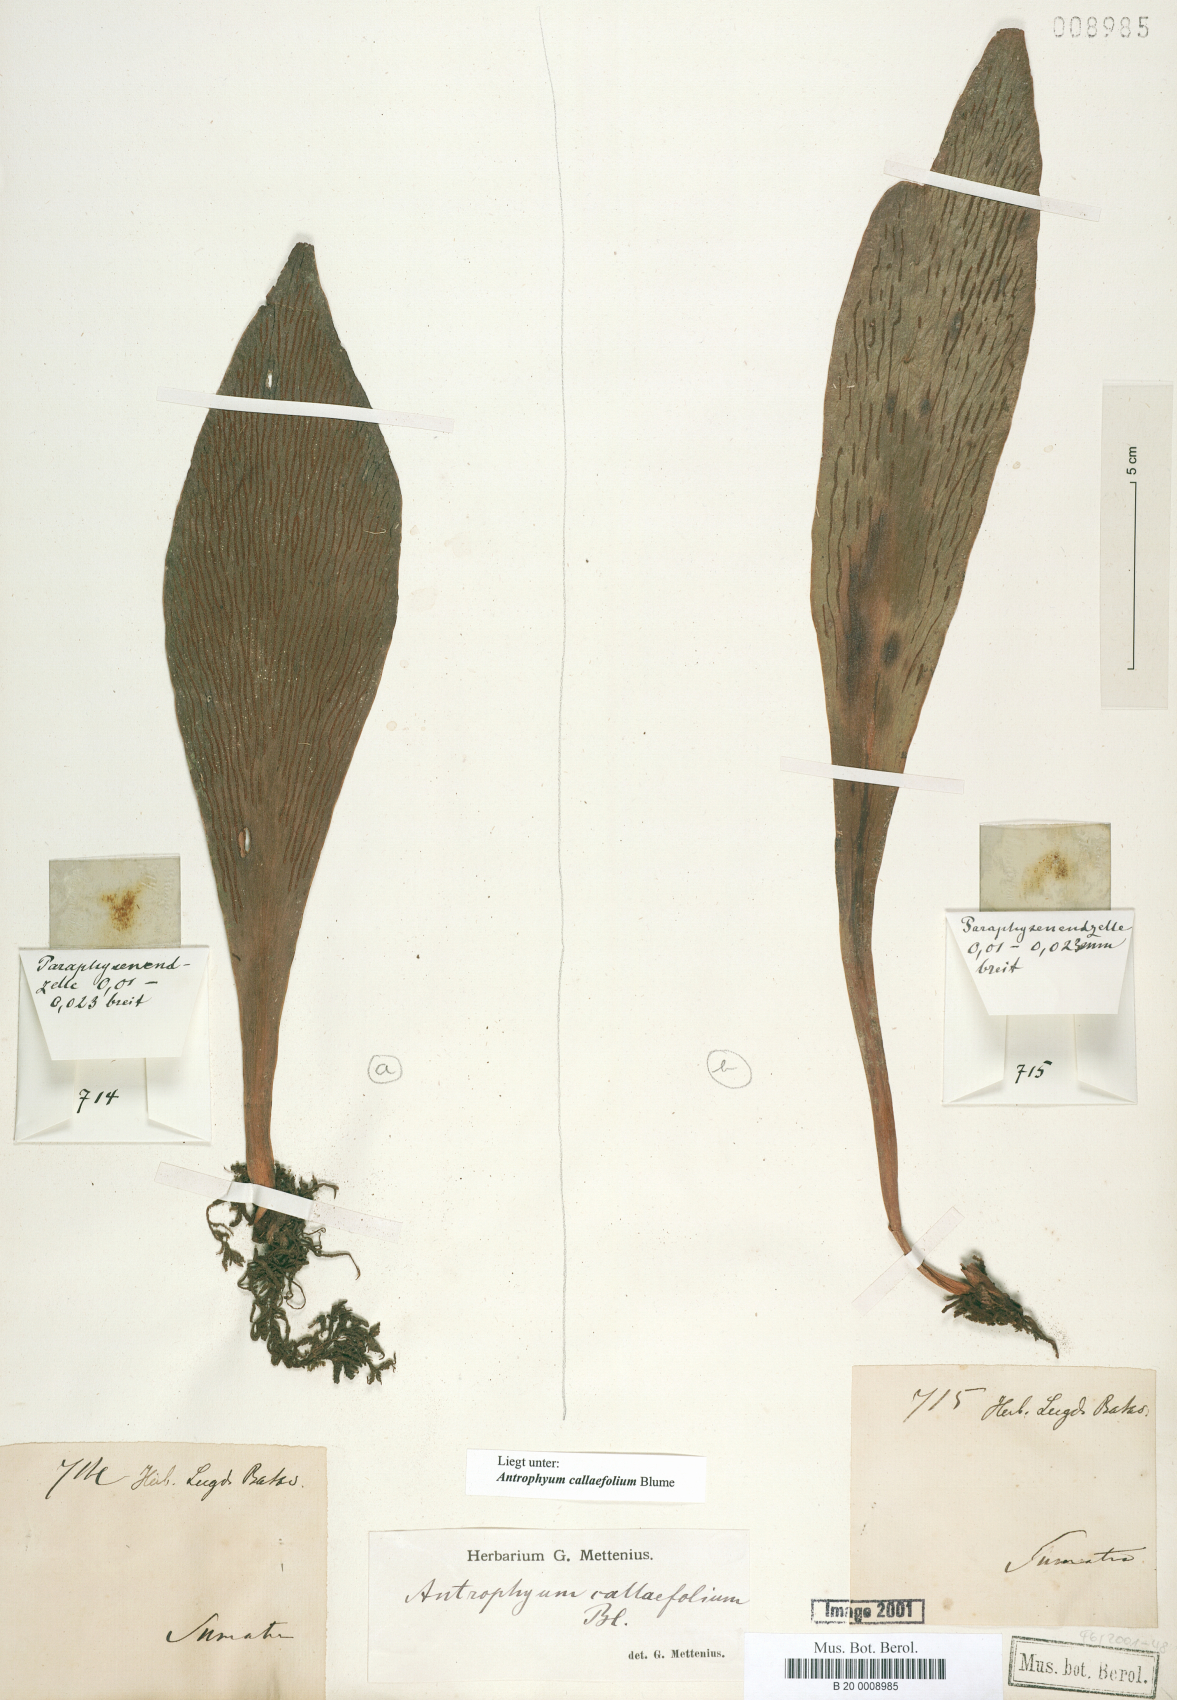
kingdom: Plantae
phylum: Tracheophyta
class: Polypodiopsida
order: Polypodiales
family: Pteridaceae
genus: Antrophyum
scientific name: Antrophyum callifolium
